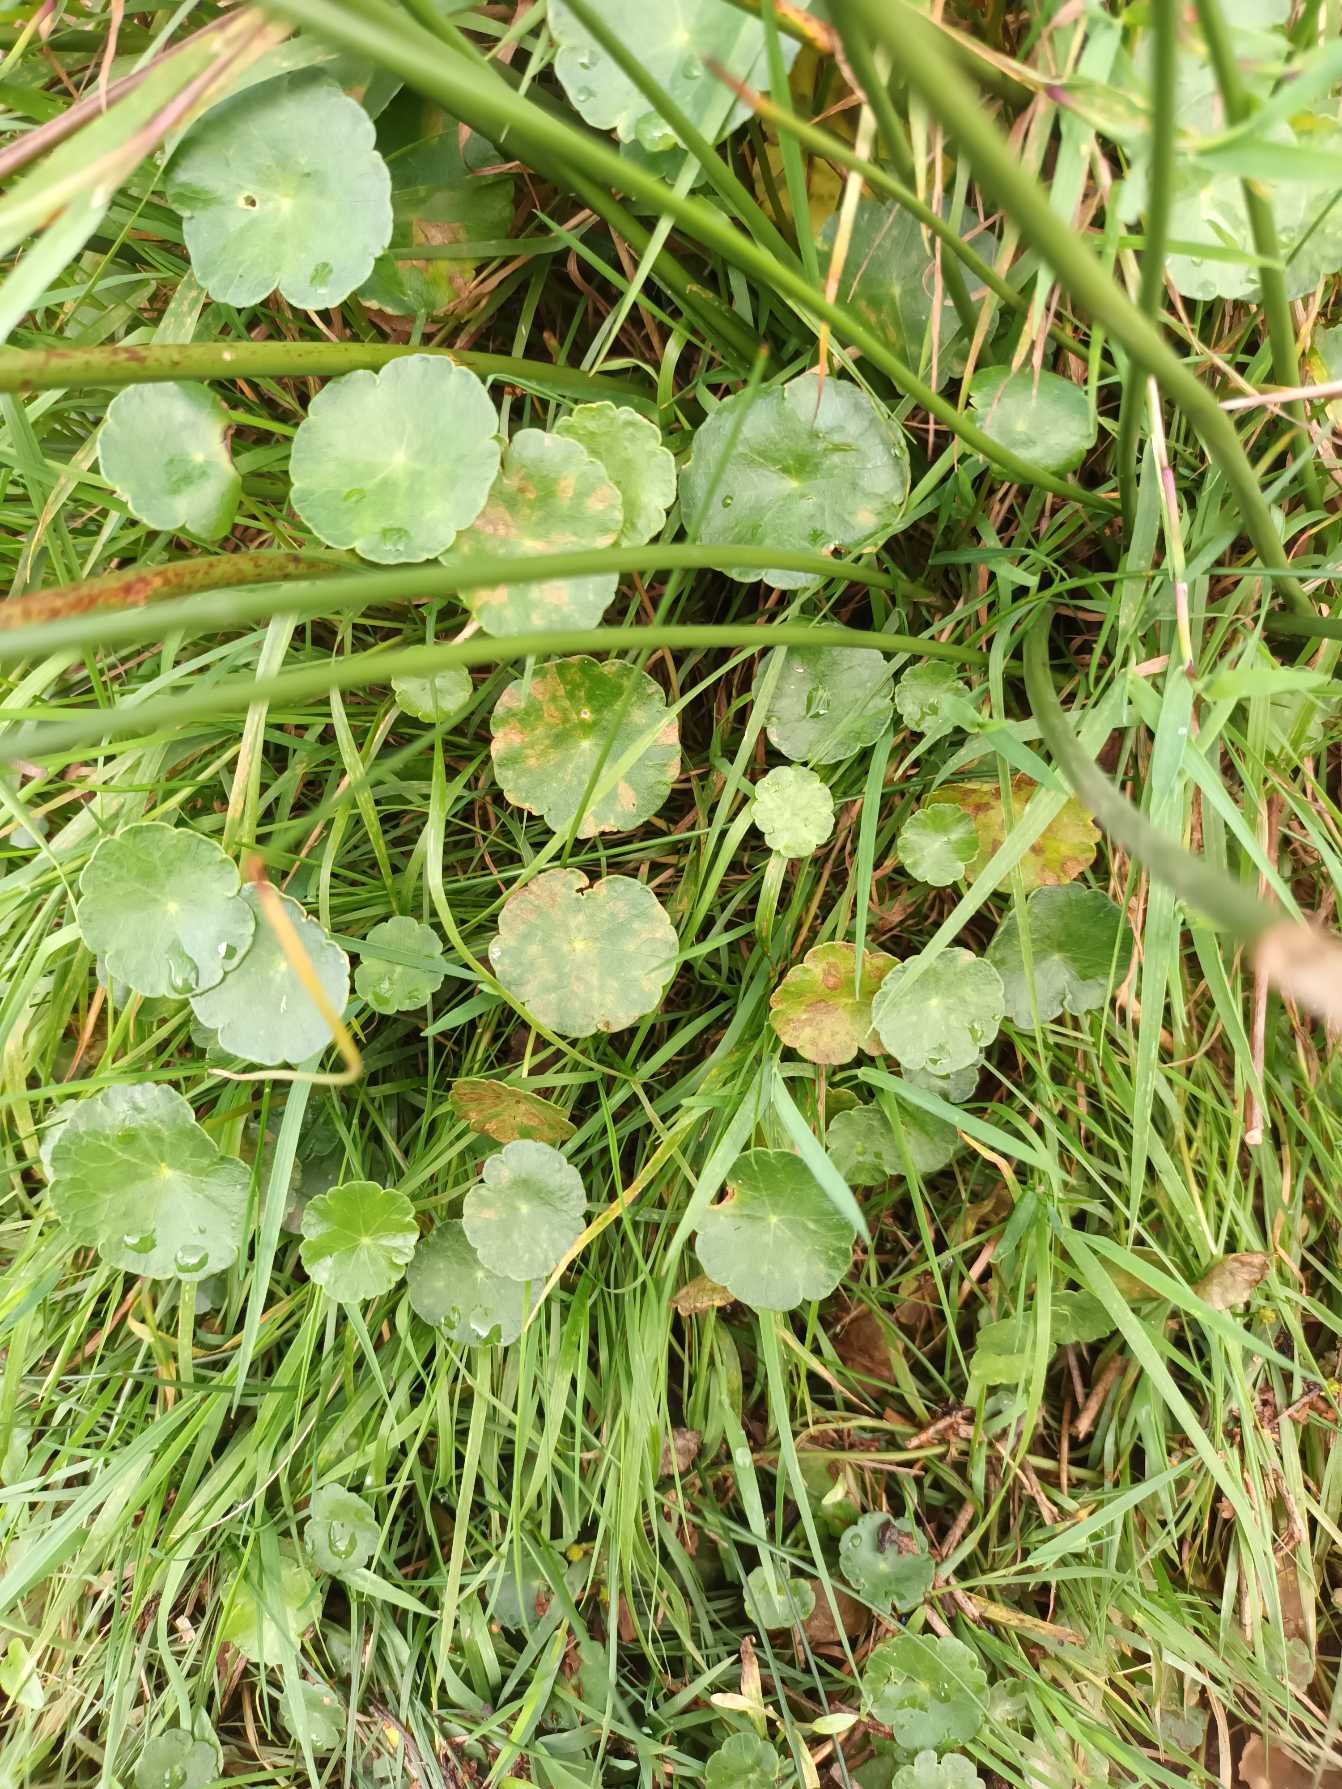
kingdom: Plantae
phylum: Tracheophyta
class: Magnoliopsida
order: Apiales
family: Araliaceae
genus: Hydrocotyle
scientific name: Hydrocotyle vulgaris
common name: Vandnavle
